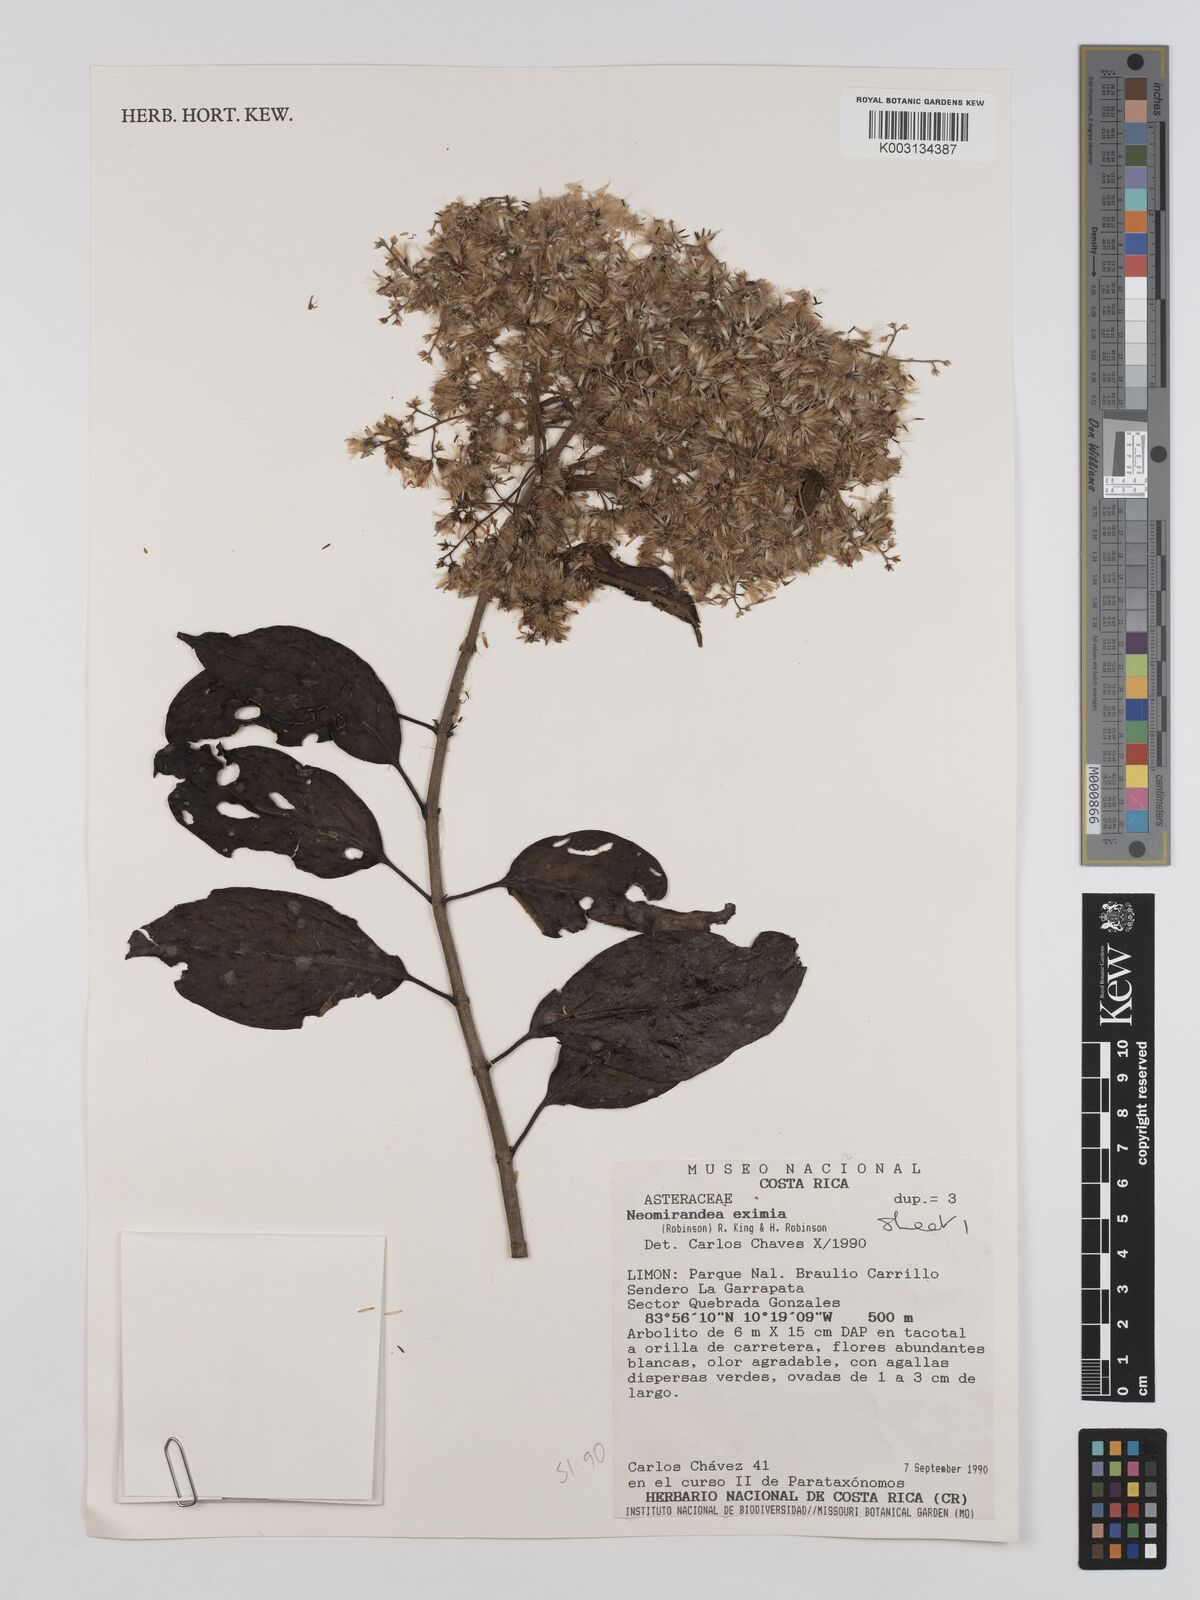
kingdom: Plantae
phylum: Tracheophyta
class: Magnoliopsida
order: Asterales
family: Asteraceae
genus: Neomirandea
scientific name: Neomirandea eximia
